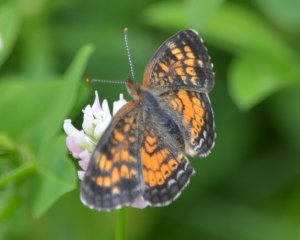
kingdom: Animalia
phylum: Arthropoda
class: Insecta
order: Lepidoptera
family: Nymphalidae
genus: Phyciodes
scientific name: Phyciodes tharos
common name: Northern Crescent
